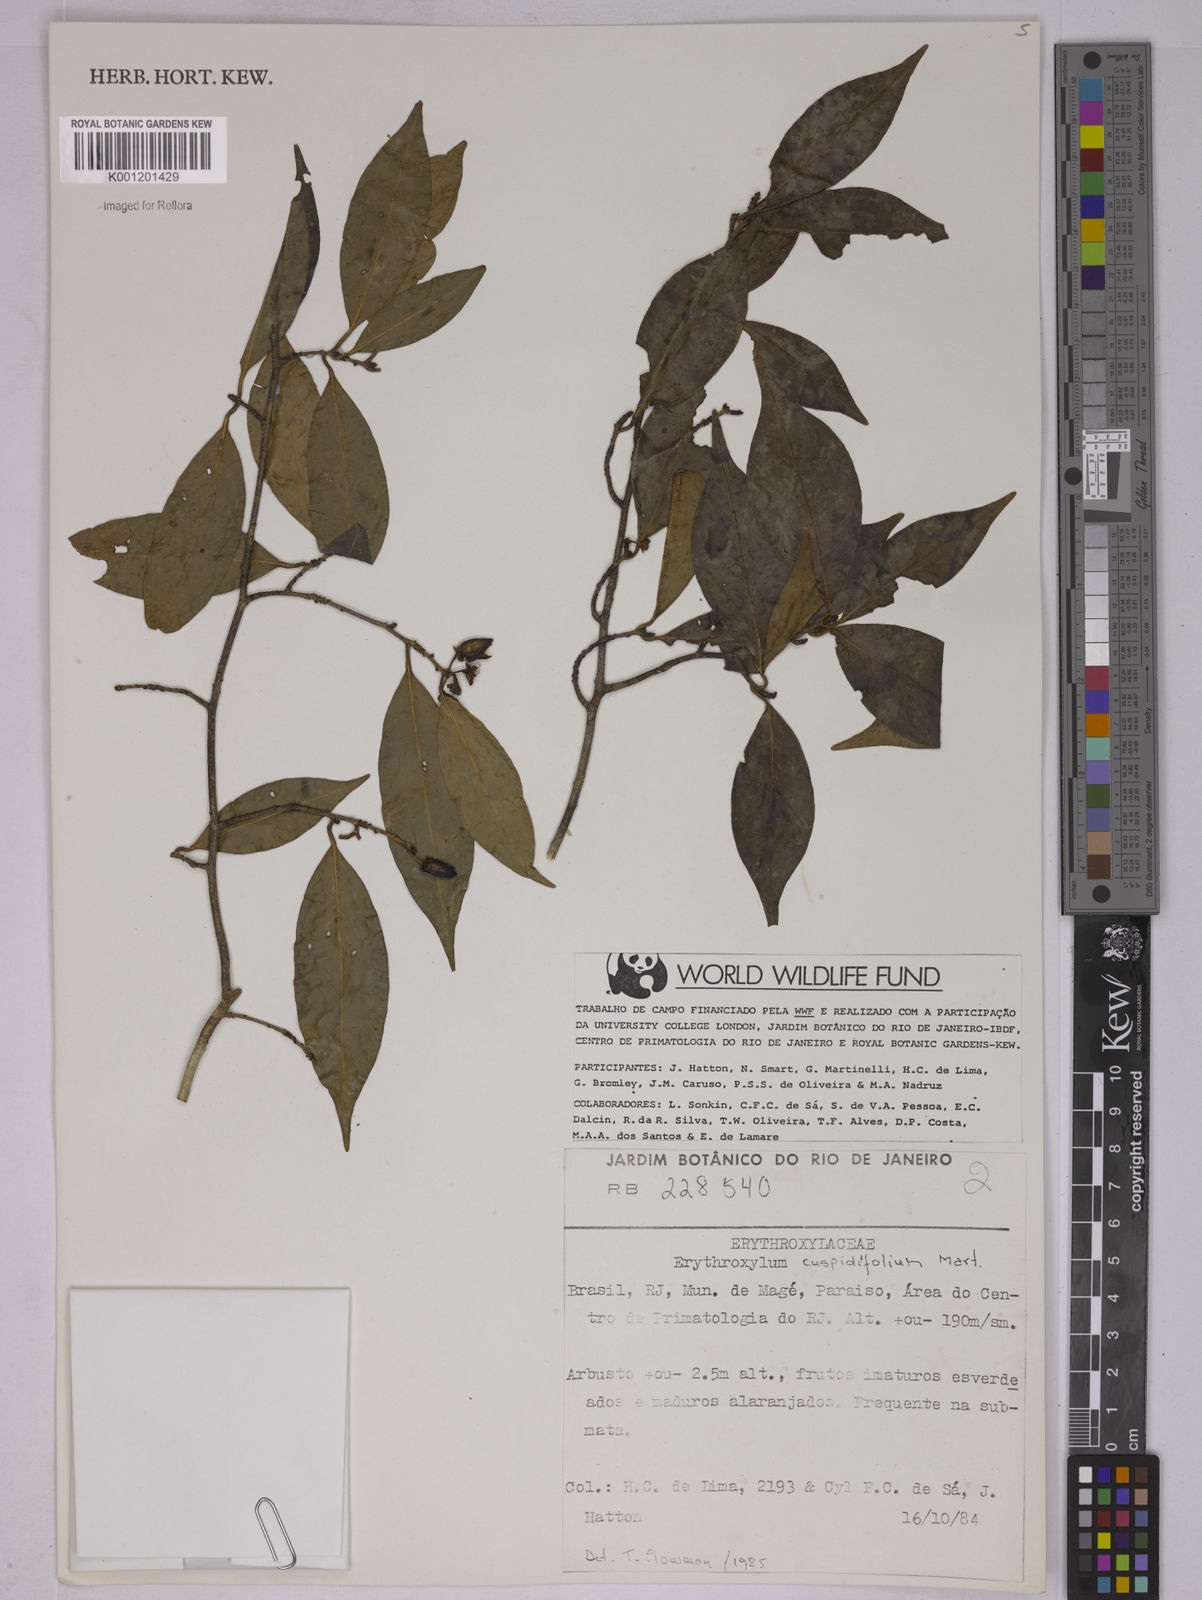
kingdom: Plantae
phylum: Tracheophyta
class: Magnoliopsida
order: Malpighiales
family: Erythroxylaceae
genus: Erythroxylum
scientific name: Erythroxylum cuspidifolium
